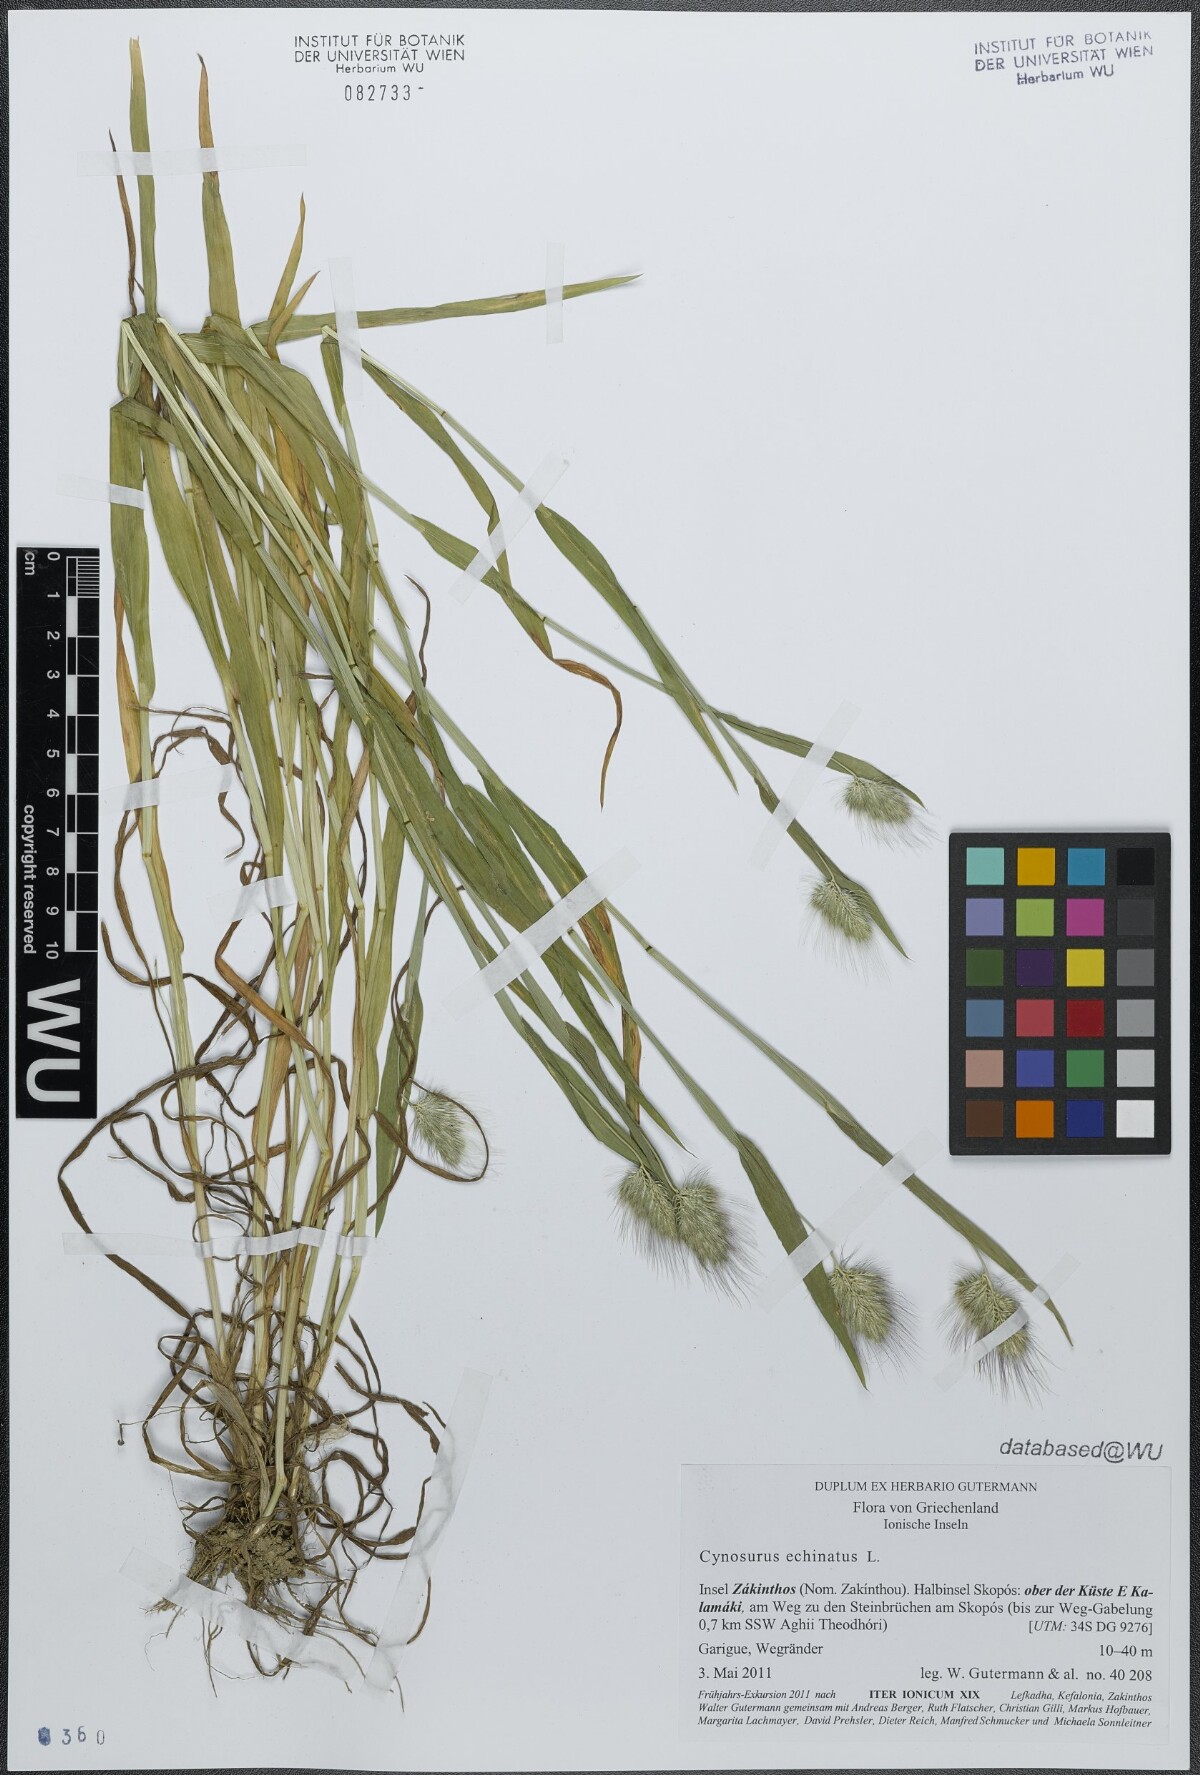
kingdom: Plantae
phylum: Tracheophyta
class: Liliopsida
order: Poales
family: Poaceae
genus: Cynosurus
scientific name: Cynosurus echinatus
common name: Rough dog's-tail
